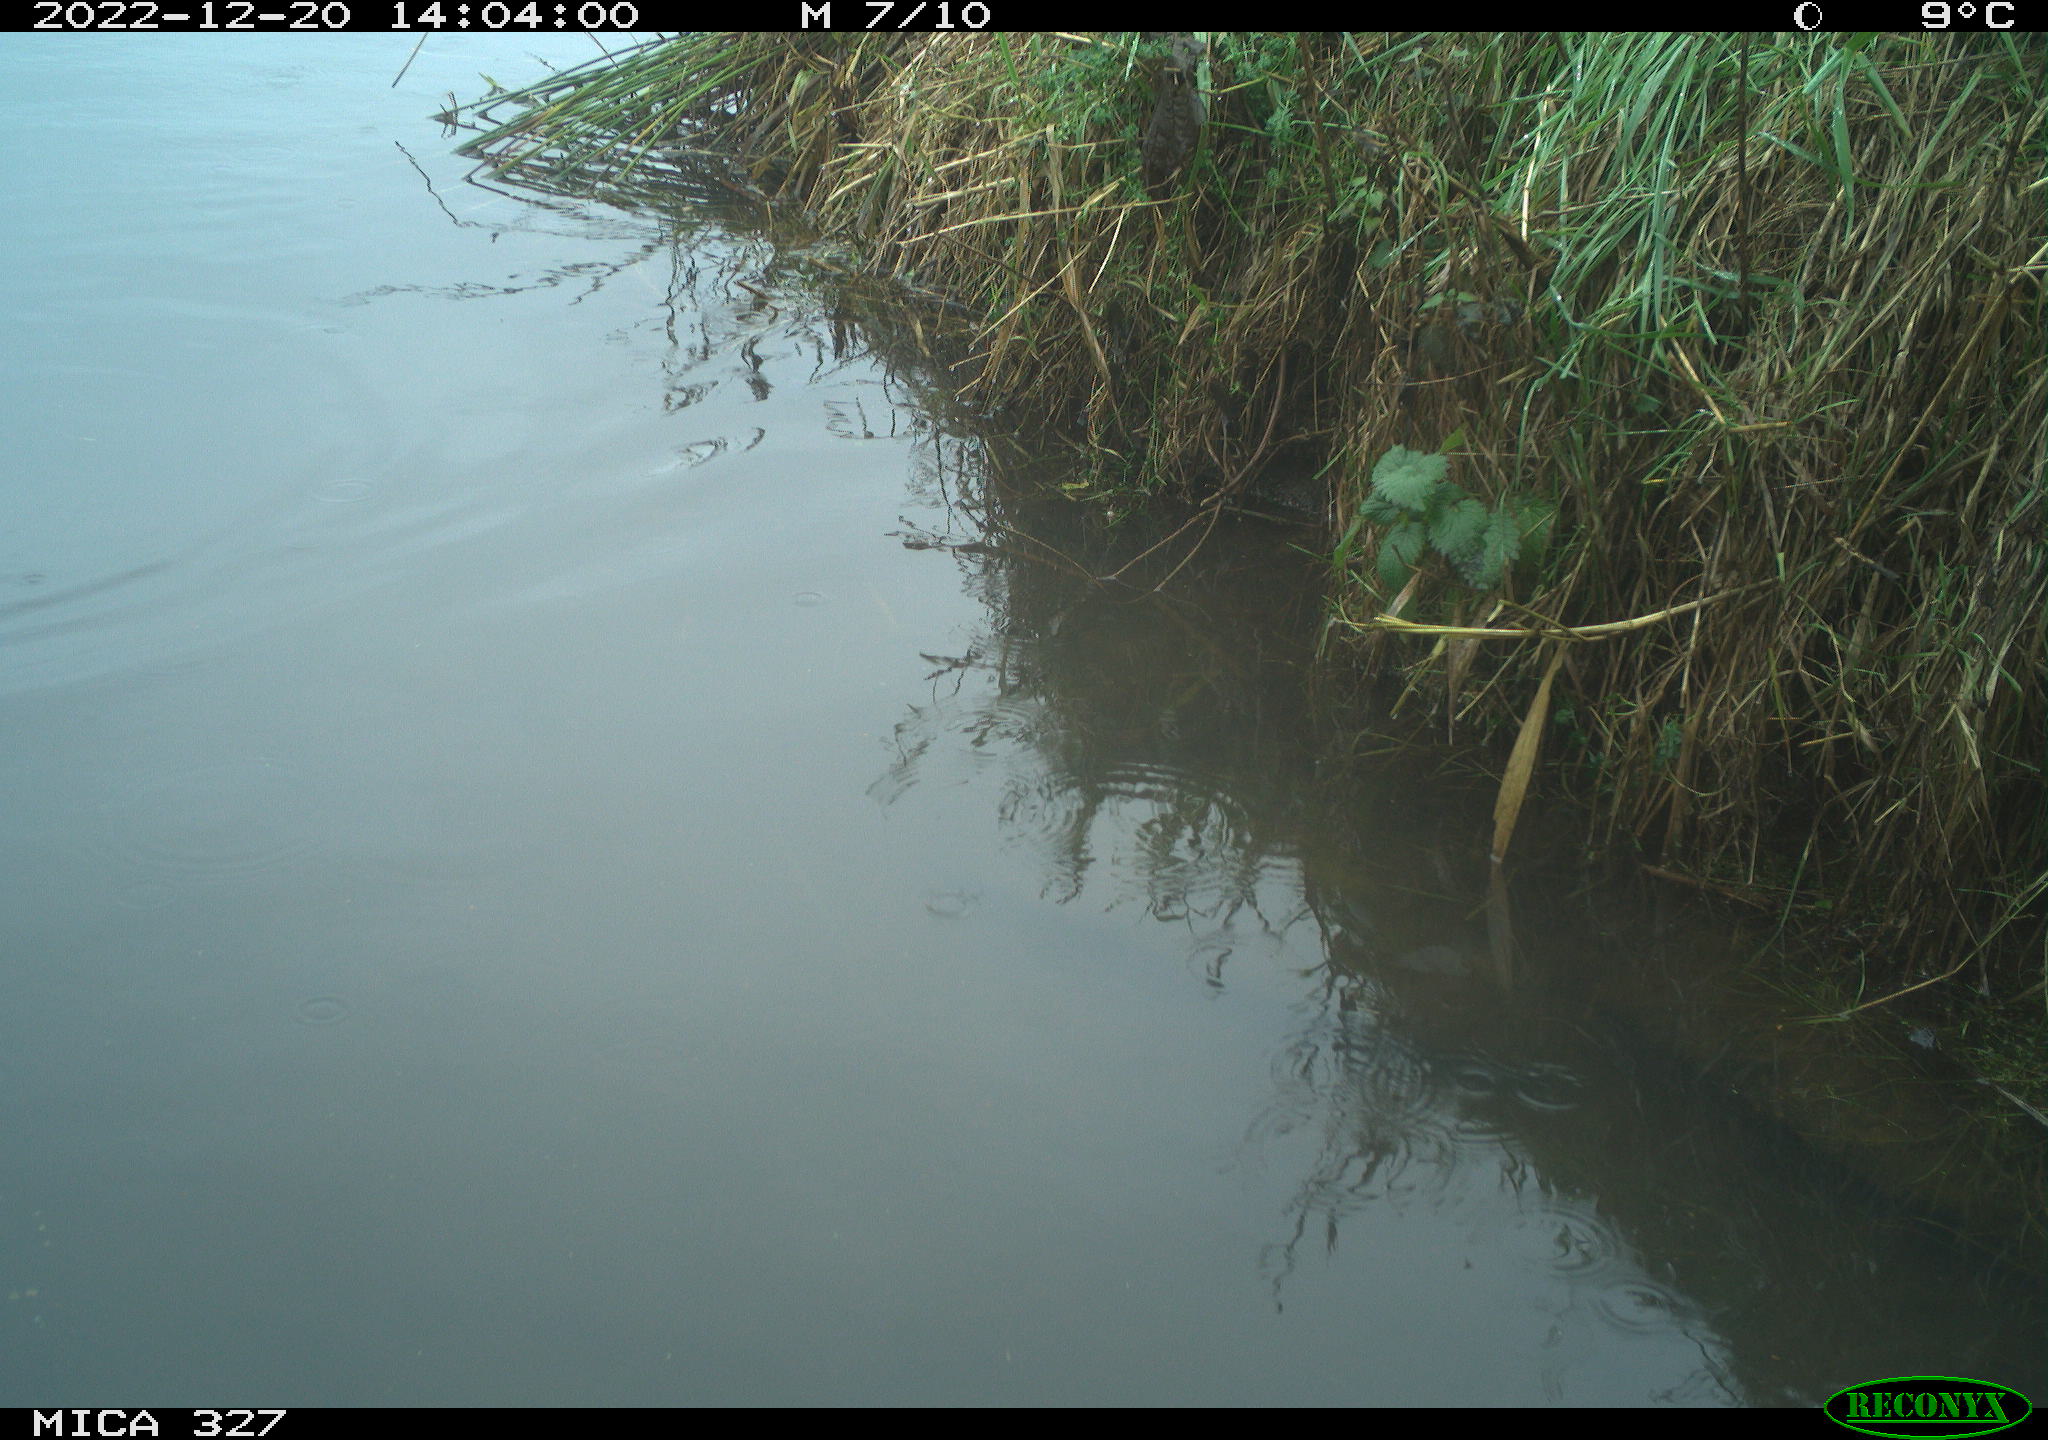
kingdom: Animalia
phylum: Chordata
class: Aves
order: Anseriformes
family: Anatidae
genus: Anas
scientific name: Anas
